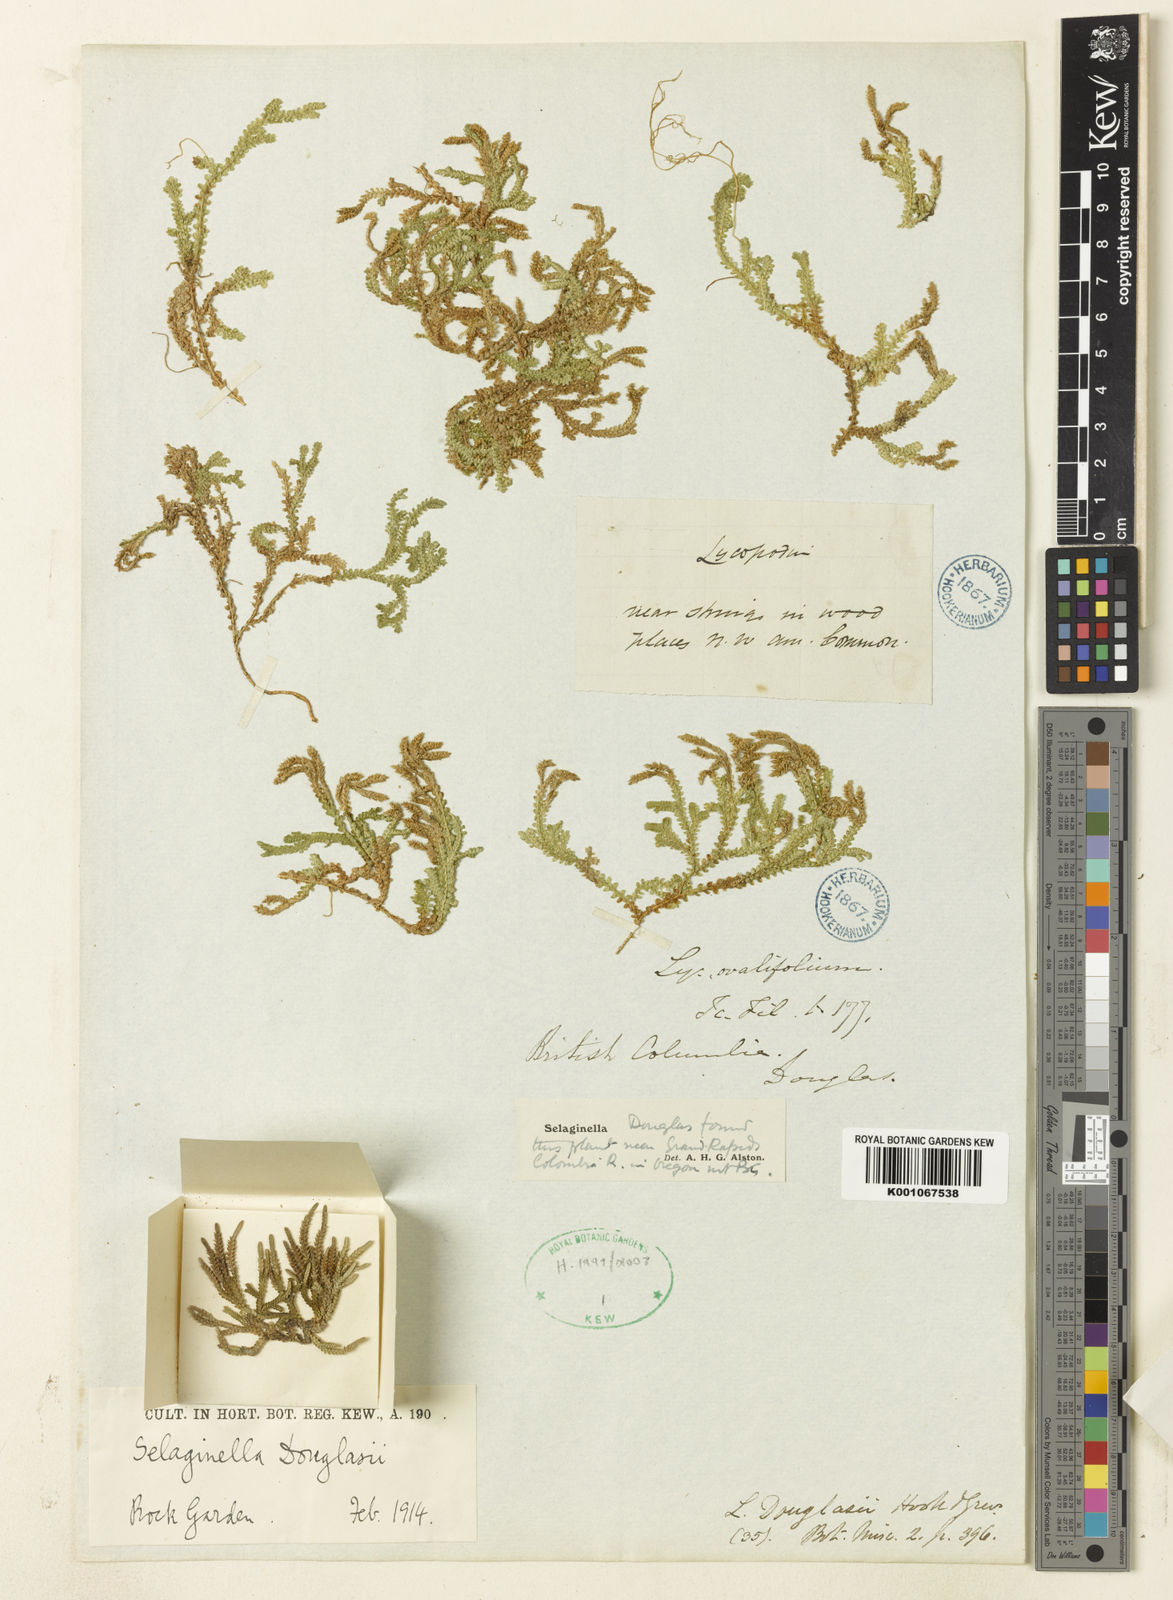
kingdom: Plantae
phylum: Tracheophyta
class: Lycopodiopsida
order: Selaginellales
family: Selaginellaceae
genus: Selaginella
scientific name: Selaginella douglasii
